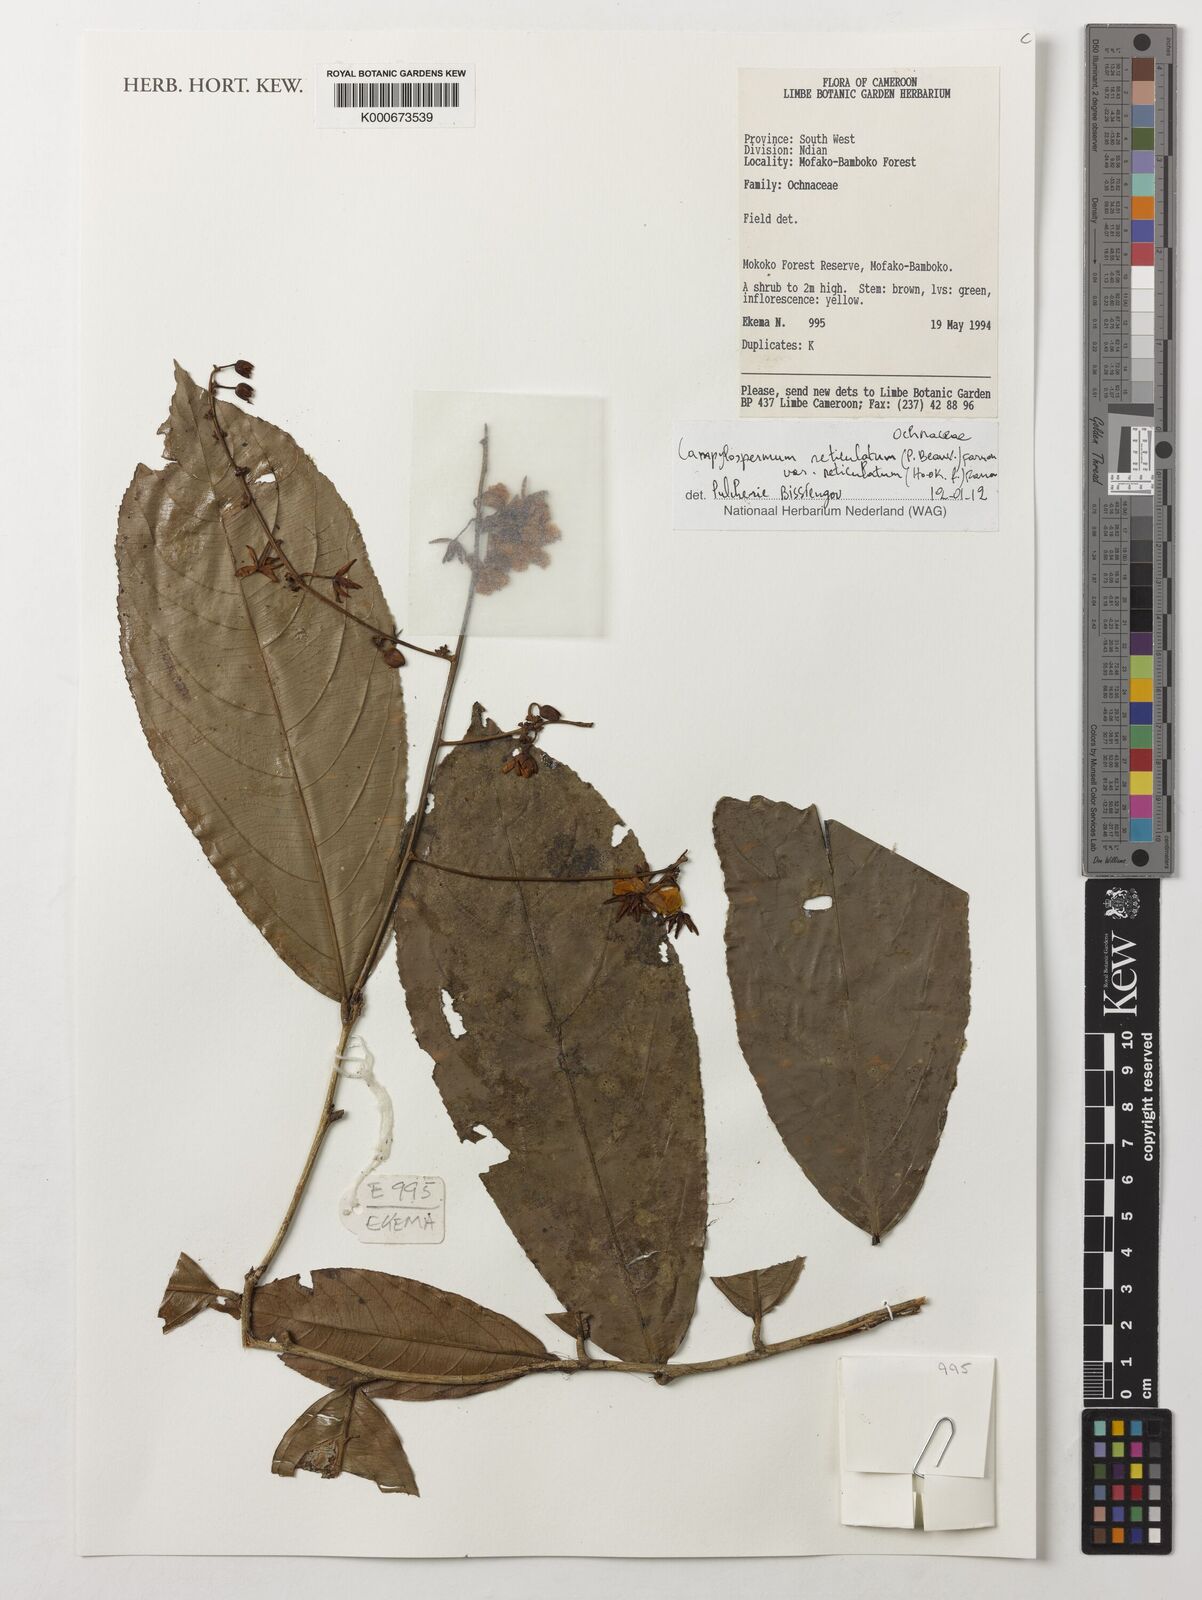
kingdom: Plantae
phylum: Tracheophyta
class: Magnoliopsida
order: Malpighiales
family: Ochnaceae
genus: Campylospermum
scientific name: Campylospermum reticulatum
